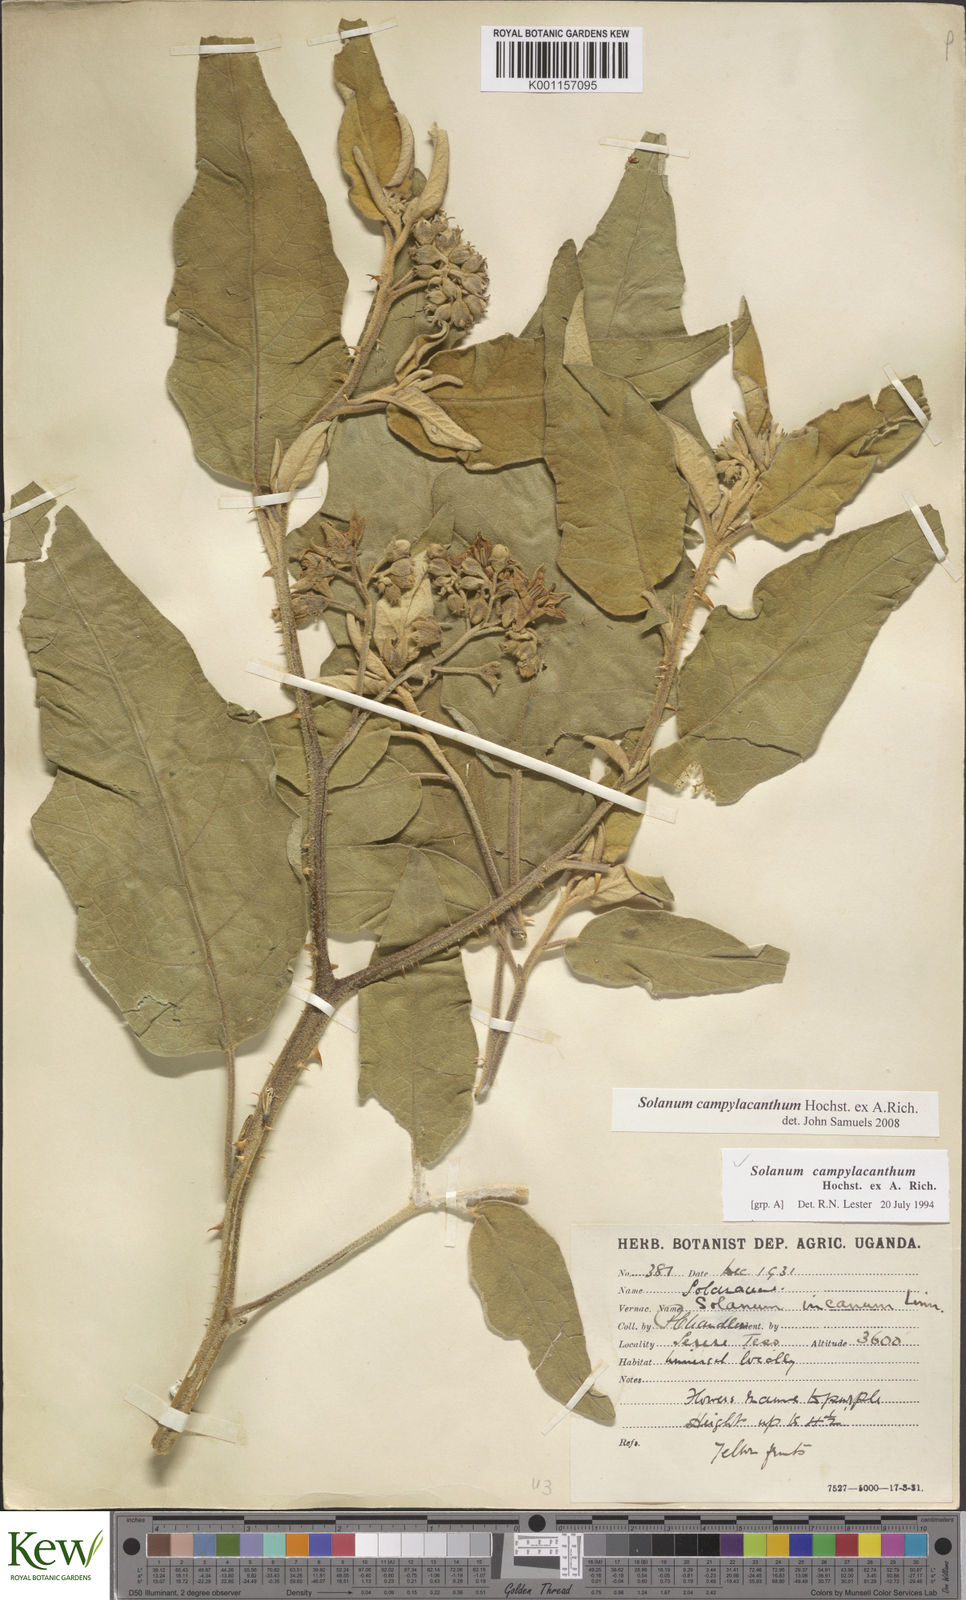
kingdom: Plantae
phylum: Tracheophyta
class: Magnoliopsida
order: Solanales
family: Solanaceae
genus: Solanum
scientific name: Solanum campylacanthum
